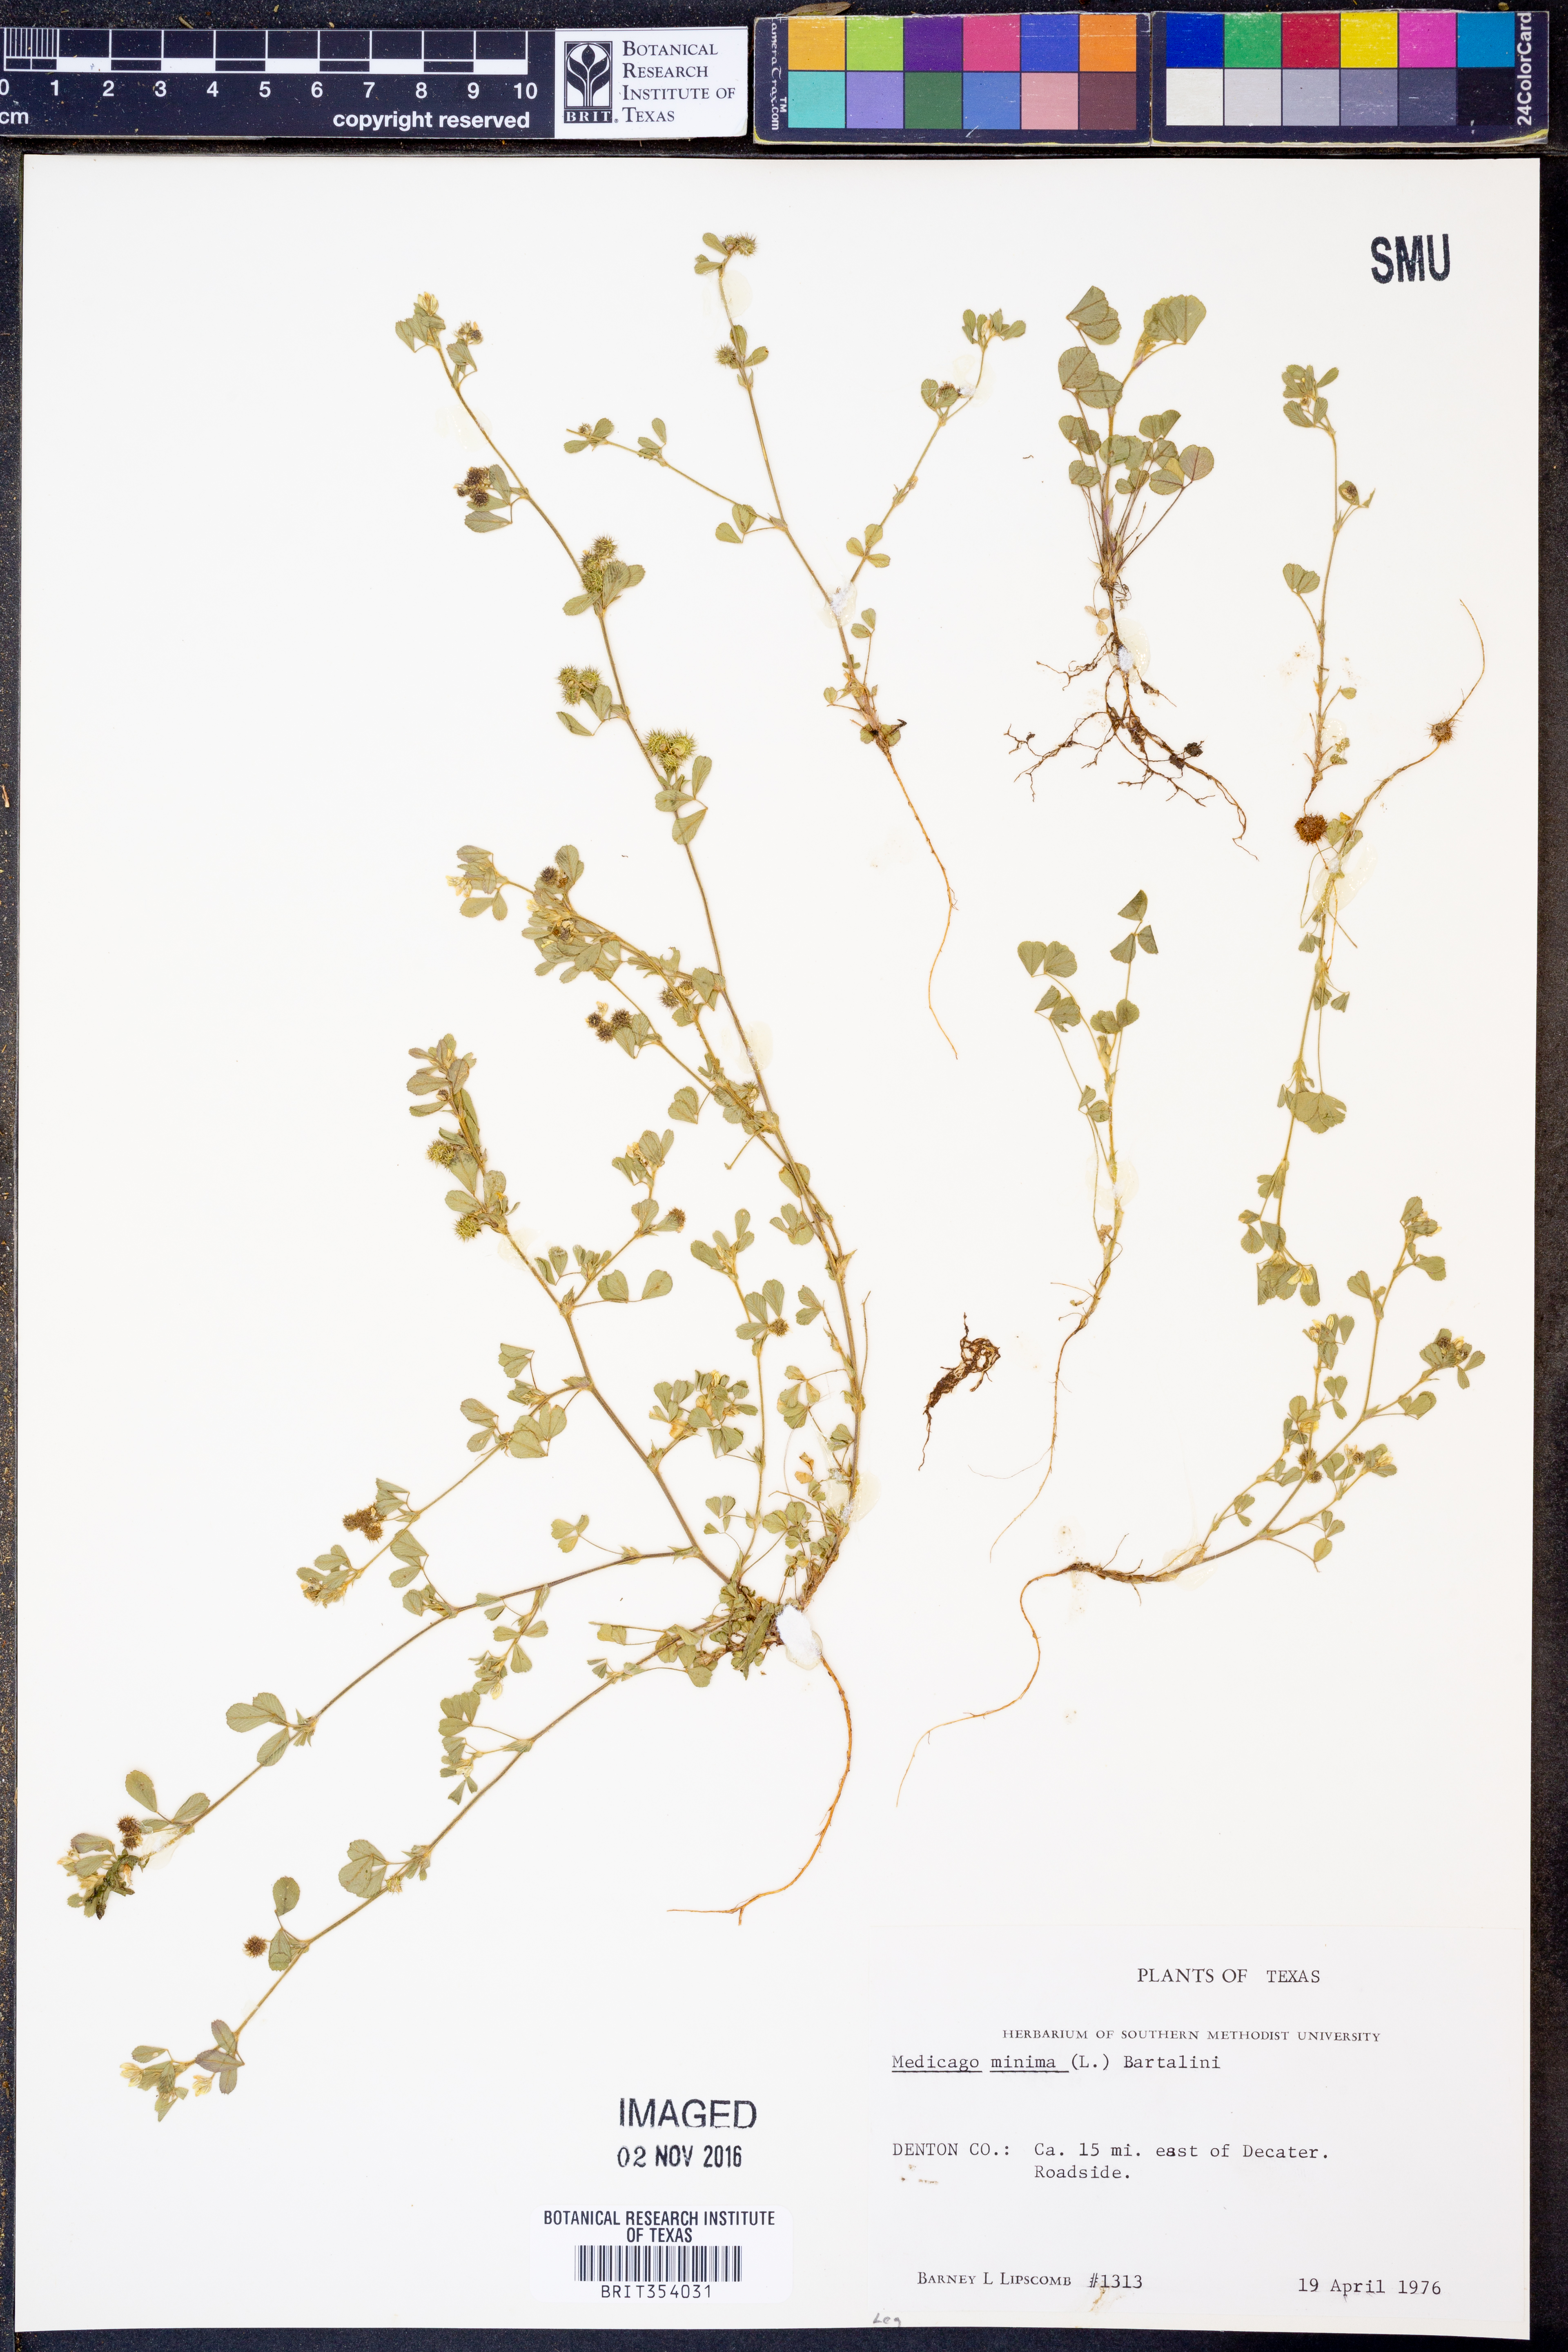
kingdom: Plantae
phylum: Tracheophyta
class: Magnoliopsida
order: Fabales
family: Fabaceae
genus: Medicago
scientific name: Medicago minima
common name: Little bur-clover
